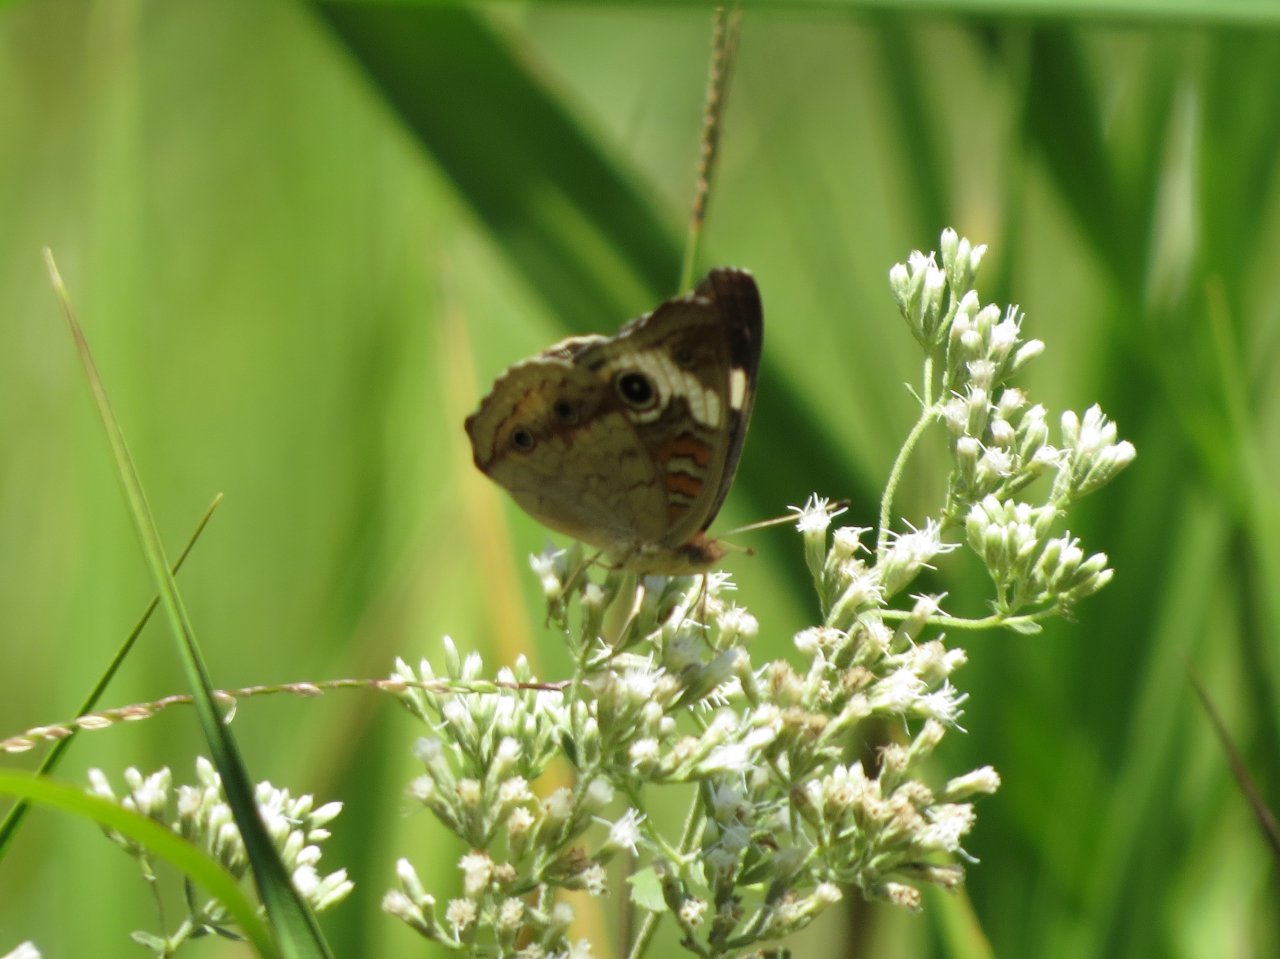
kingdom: Animalia
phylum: Arthropoda
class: Insecta
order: Lepidoptera
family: Nymphalidae
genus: Junonia
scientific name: Junonia coenia
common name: Common Buckeye
